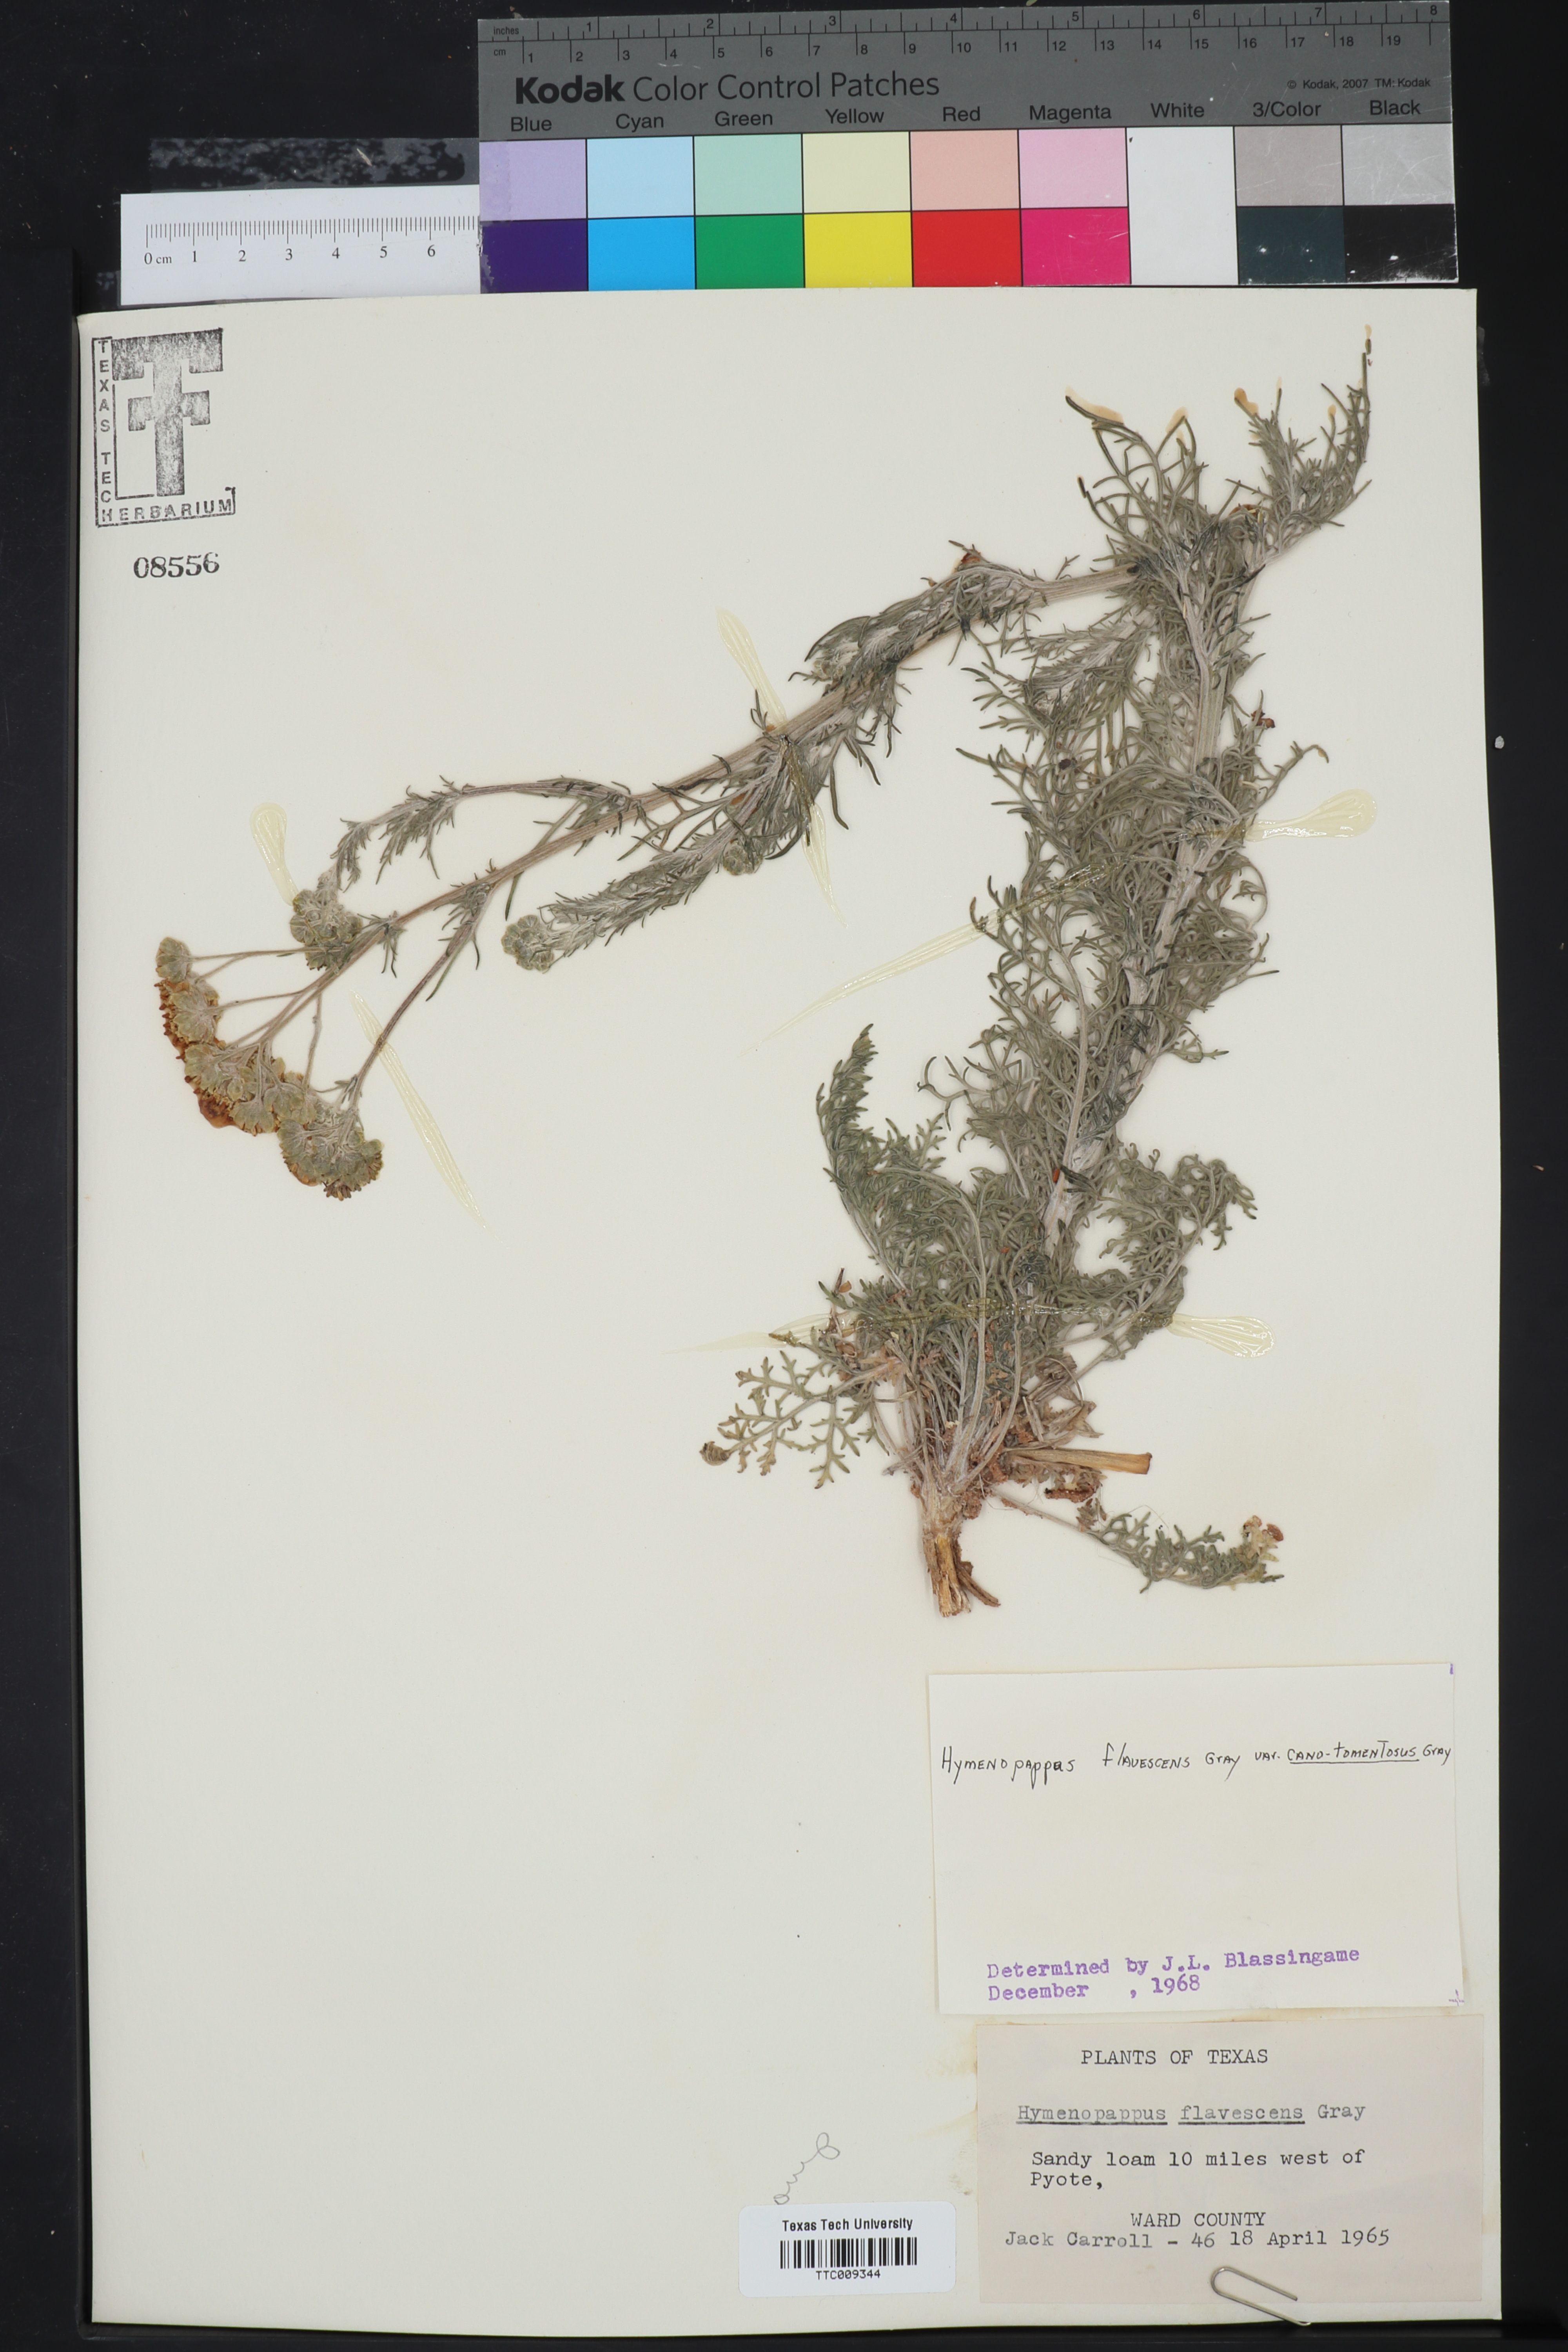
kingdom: Plantae
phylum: Tracheophyta
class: Magnoliopsida
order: Asterales
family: Asteraceae
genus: Hymenopappus
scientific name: Hymenopappus flavescens
